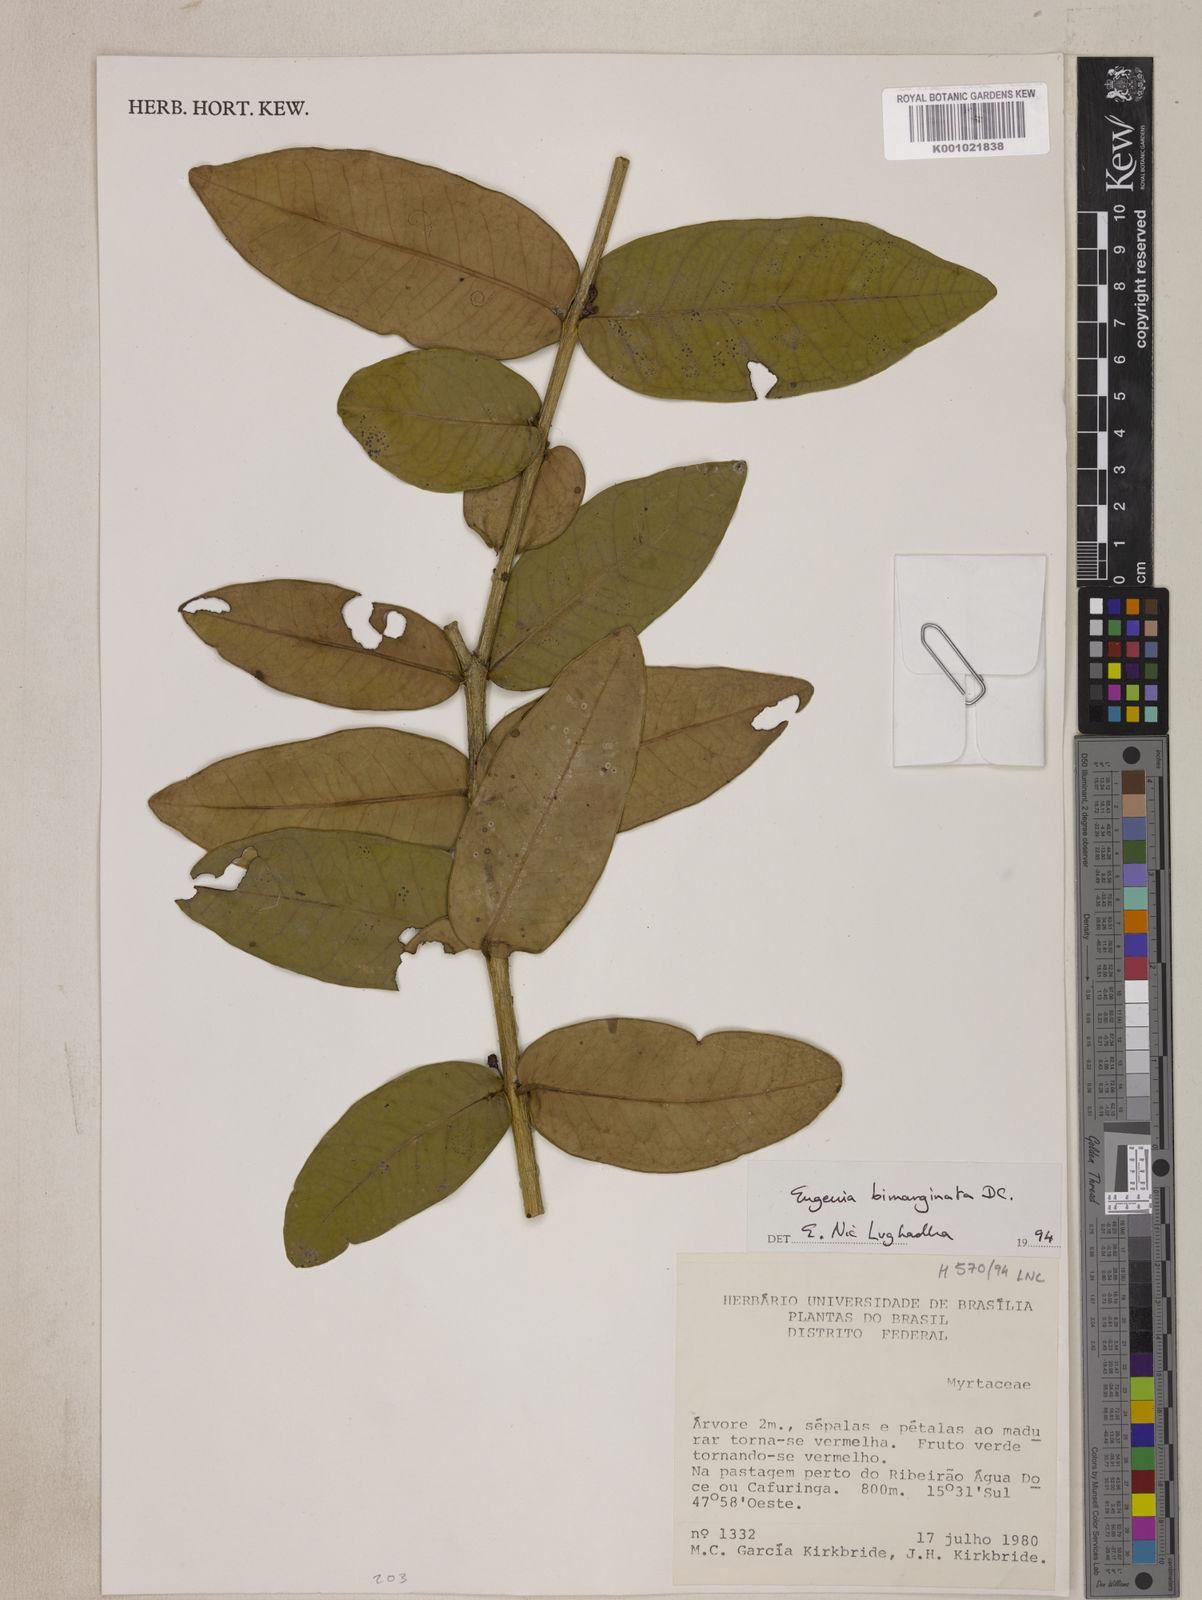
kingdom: Plantae
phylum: Tracheophyta
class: Magnoliopsida
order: Myrtales
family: Myrtaceae
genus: Eugenia
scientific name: Eugenia bimarginata
